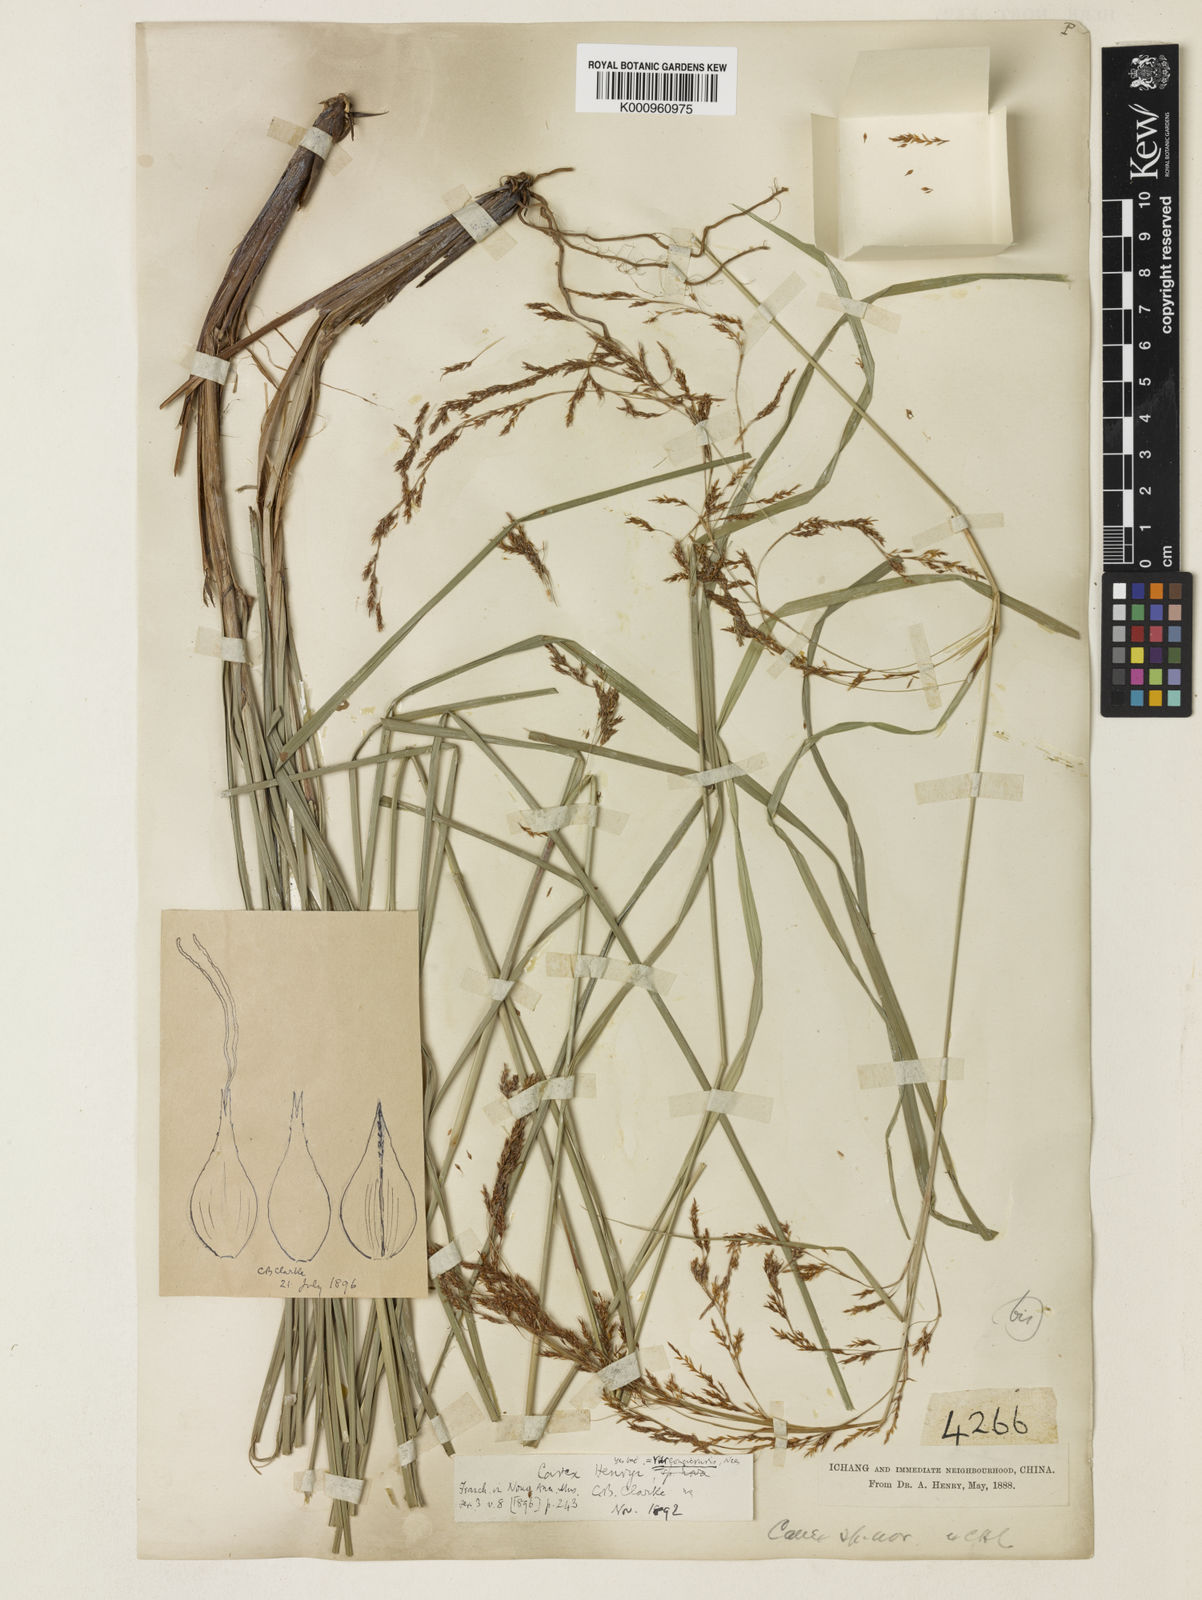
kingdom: Plantae
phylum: Tracheophyta
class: Liliopsida
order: Poales
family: Cyperaceae
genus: Carex
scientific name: Carex longicruris
